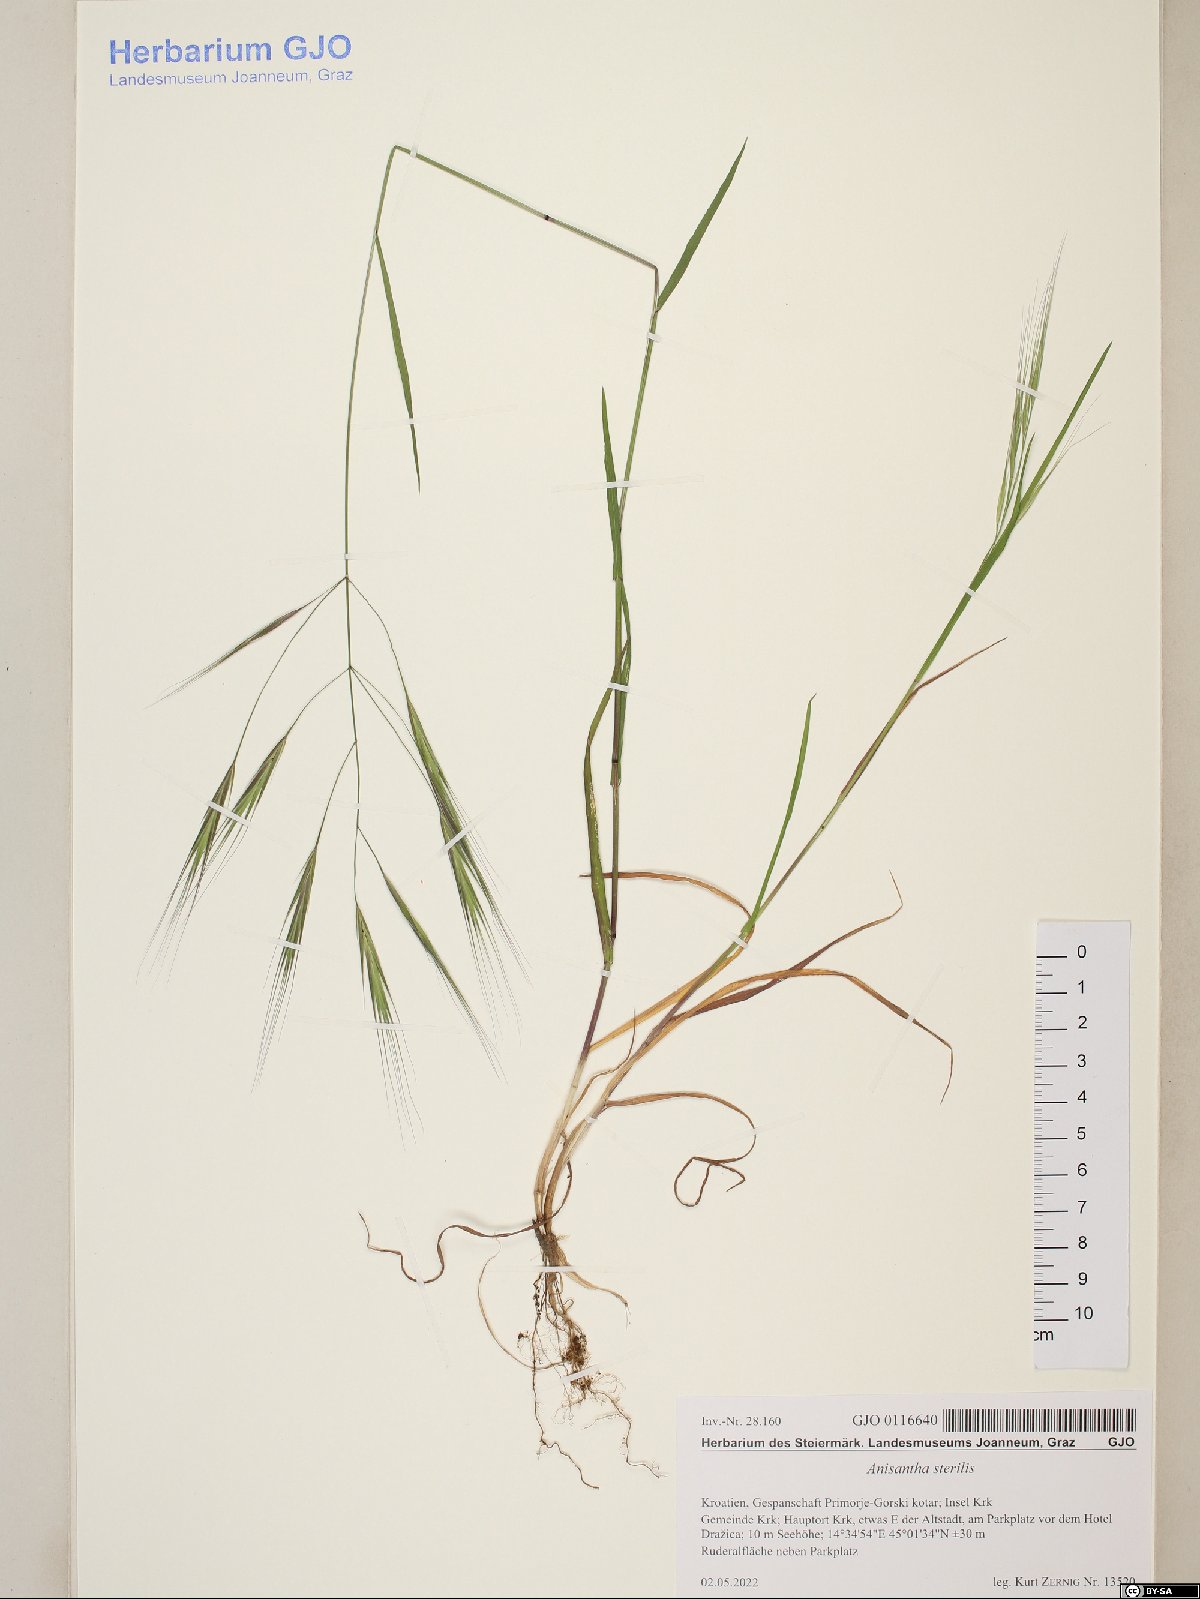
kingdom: Plantae
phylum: Tracheophyta
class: Liliopsida
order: Poales
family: Poaceae
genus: Bromus
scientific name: Bromus sterilis
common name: Poverty brome
